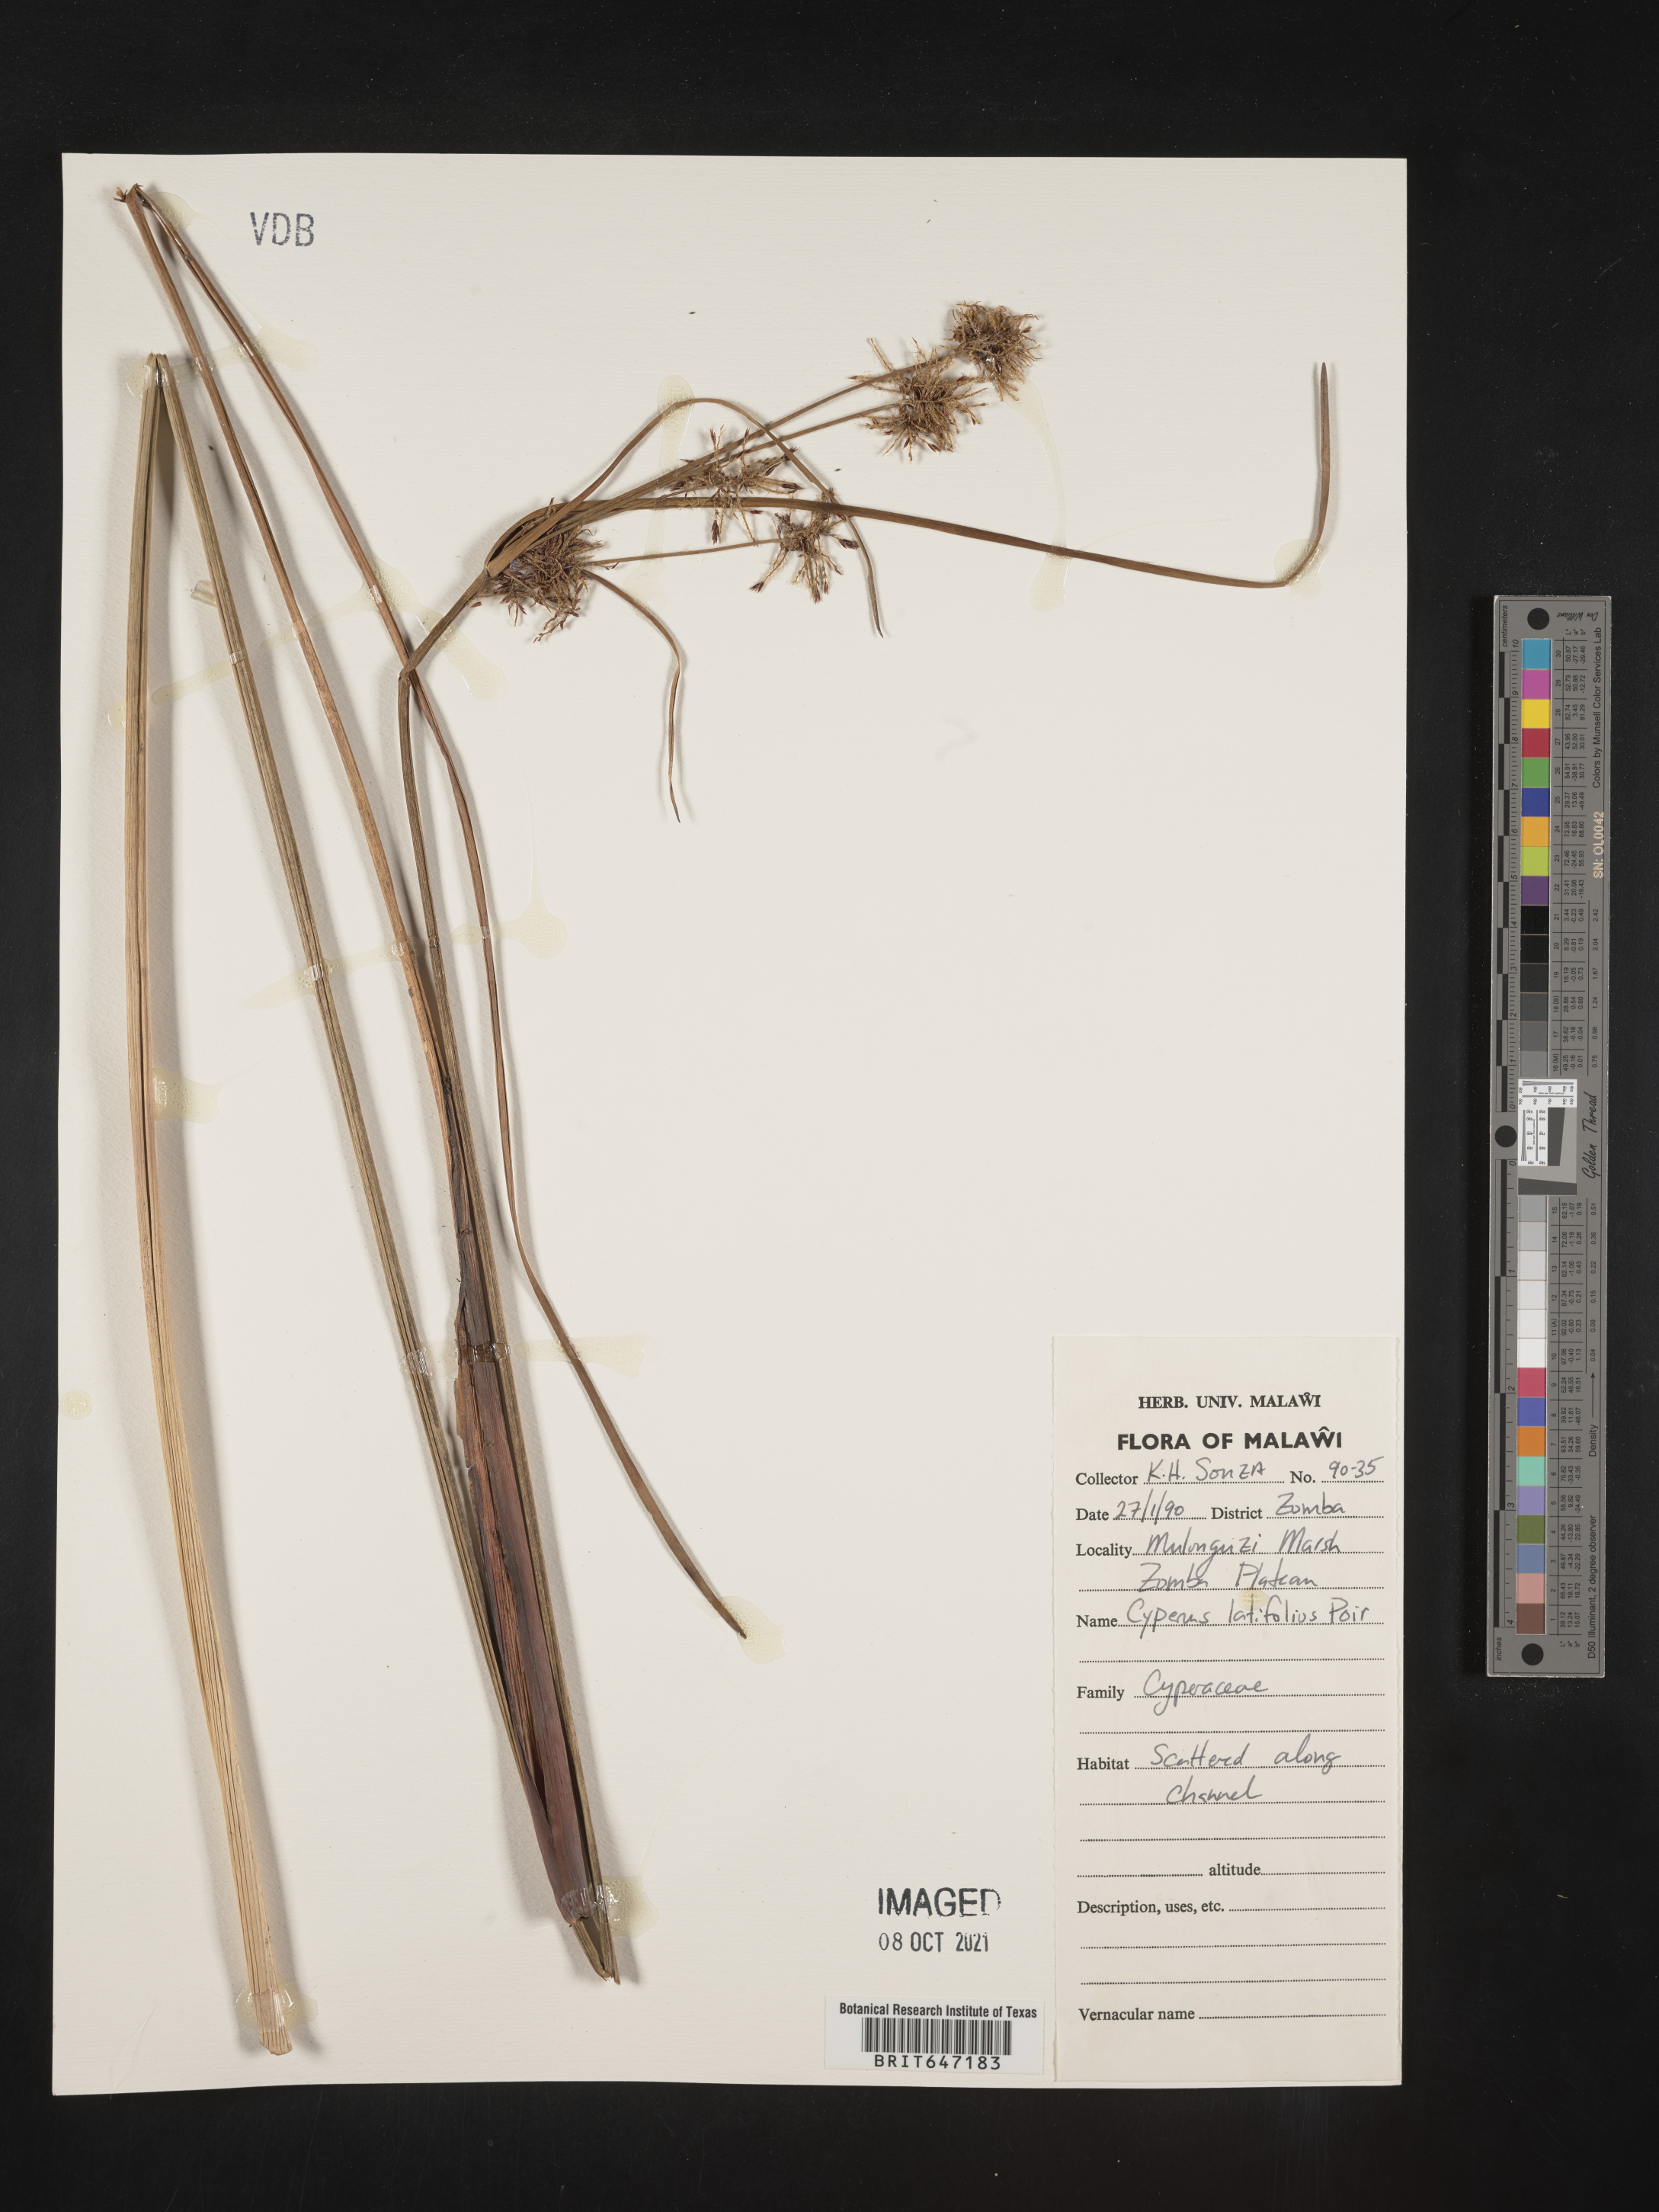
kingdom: Plantae
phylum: Tracheophyta
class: Liliopsida
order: Poales
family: Cyperaceae
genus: Cyperus
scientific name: Cyperus latifolius
